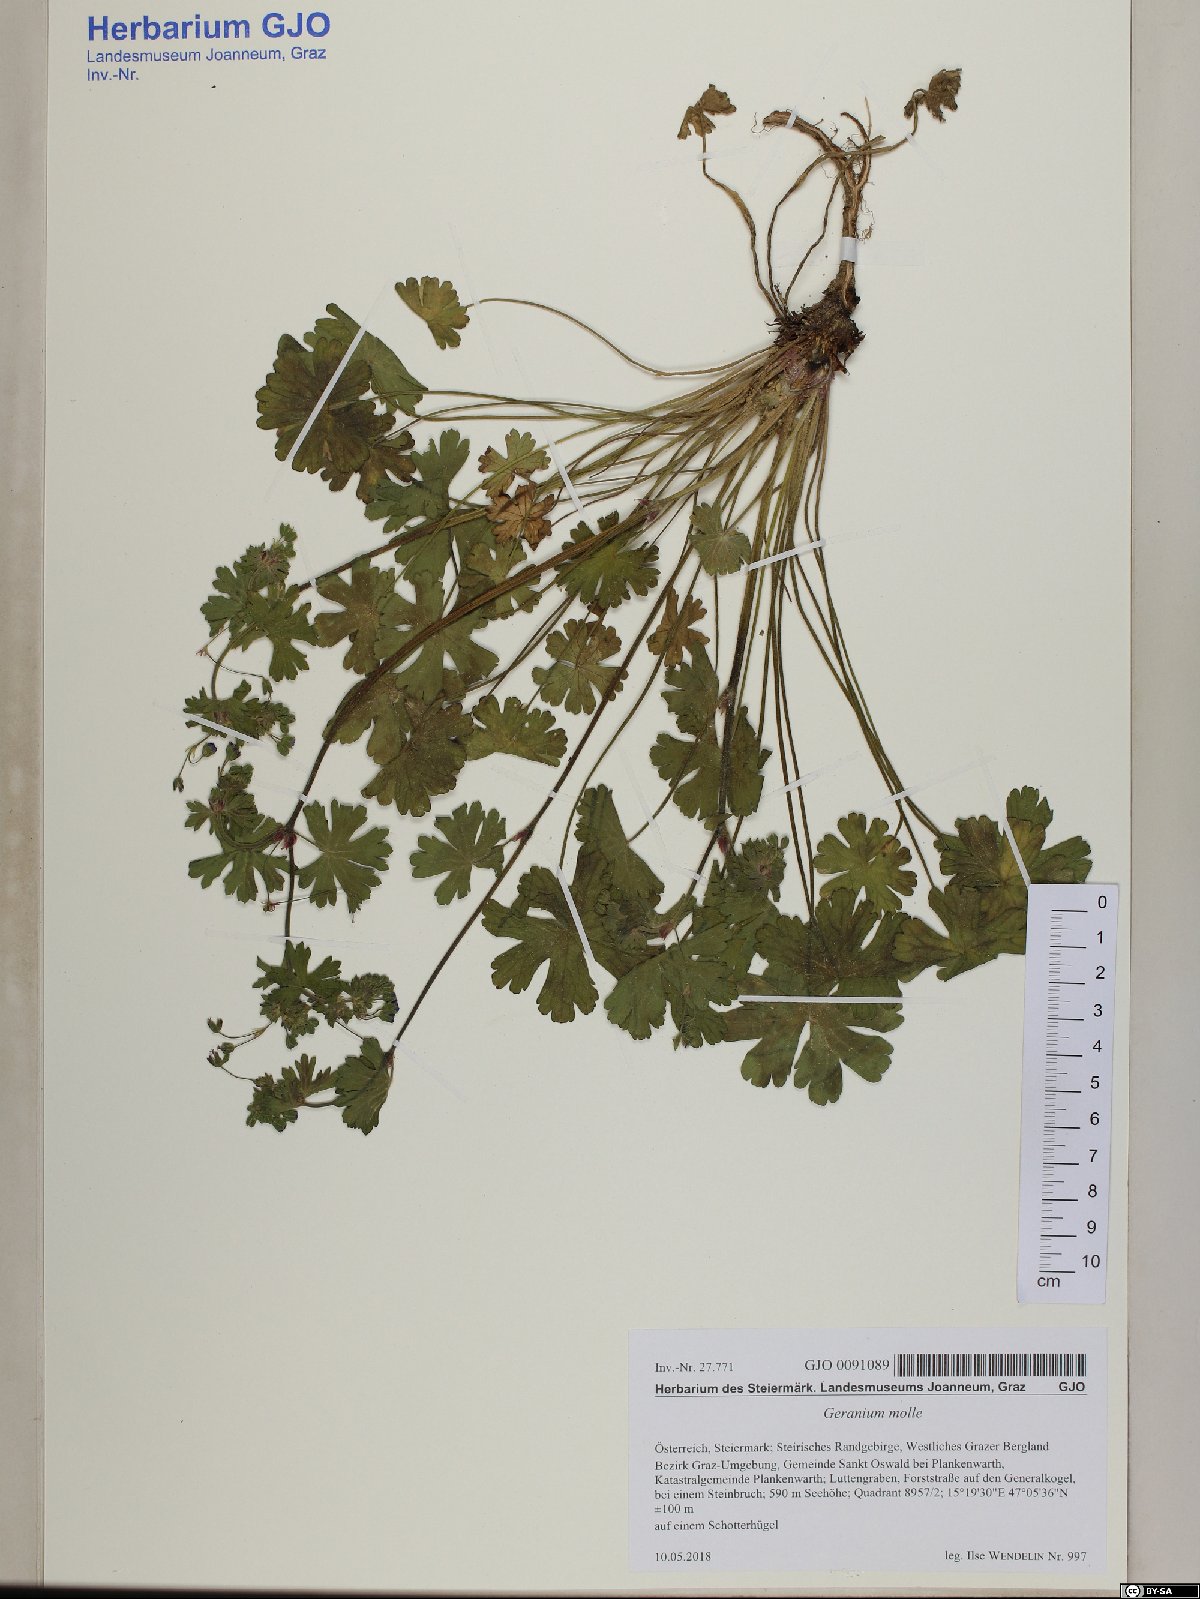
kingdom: Plantae
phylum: Tracheophyta
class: Magnoliopsida
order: Geraniales
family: Geraniaceae
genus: Geranium
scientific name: Geranium molle
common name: Dove's-foot crane's-bill
